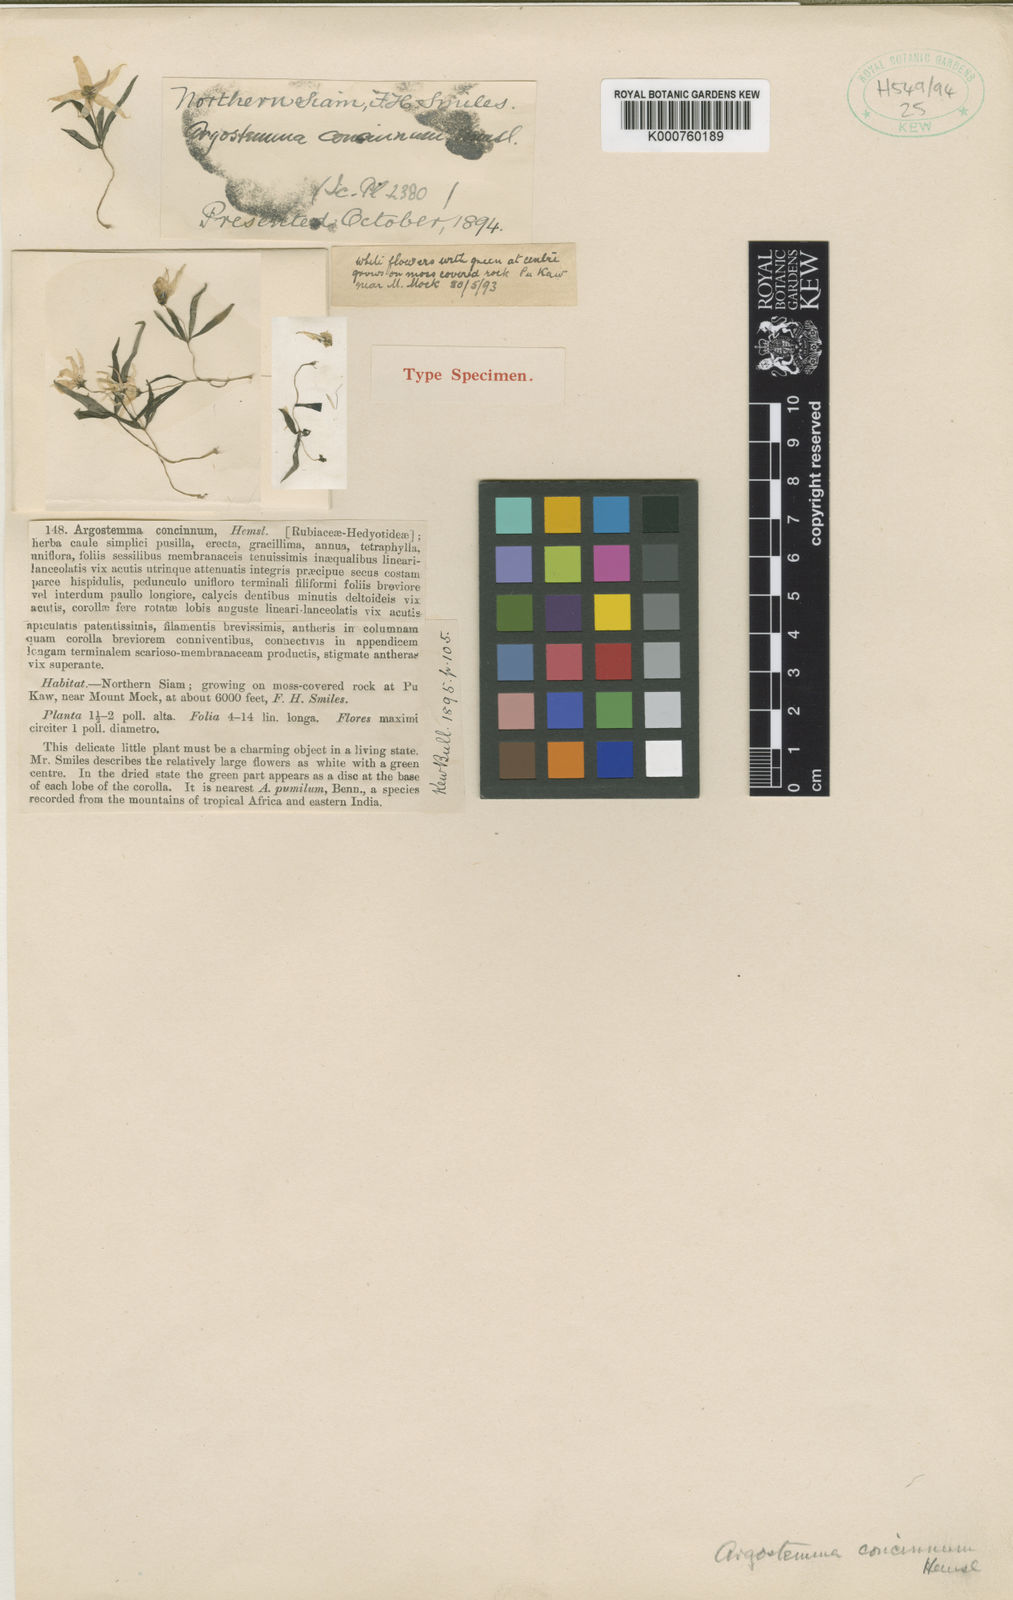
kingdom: Plantae
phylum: Tracheophyta
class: Magnoliopsida
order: Gentianales
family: Rubiaceae
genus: Argostemma
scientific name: Argostemma concinnum
